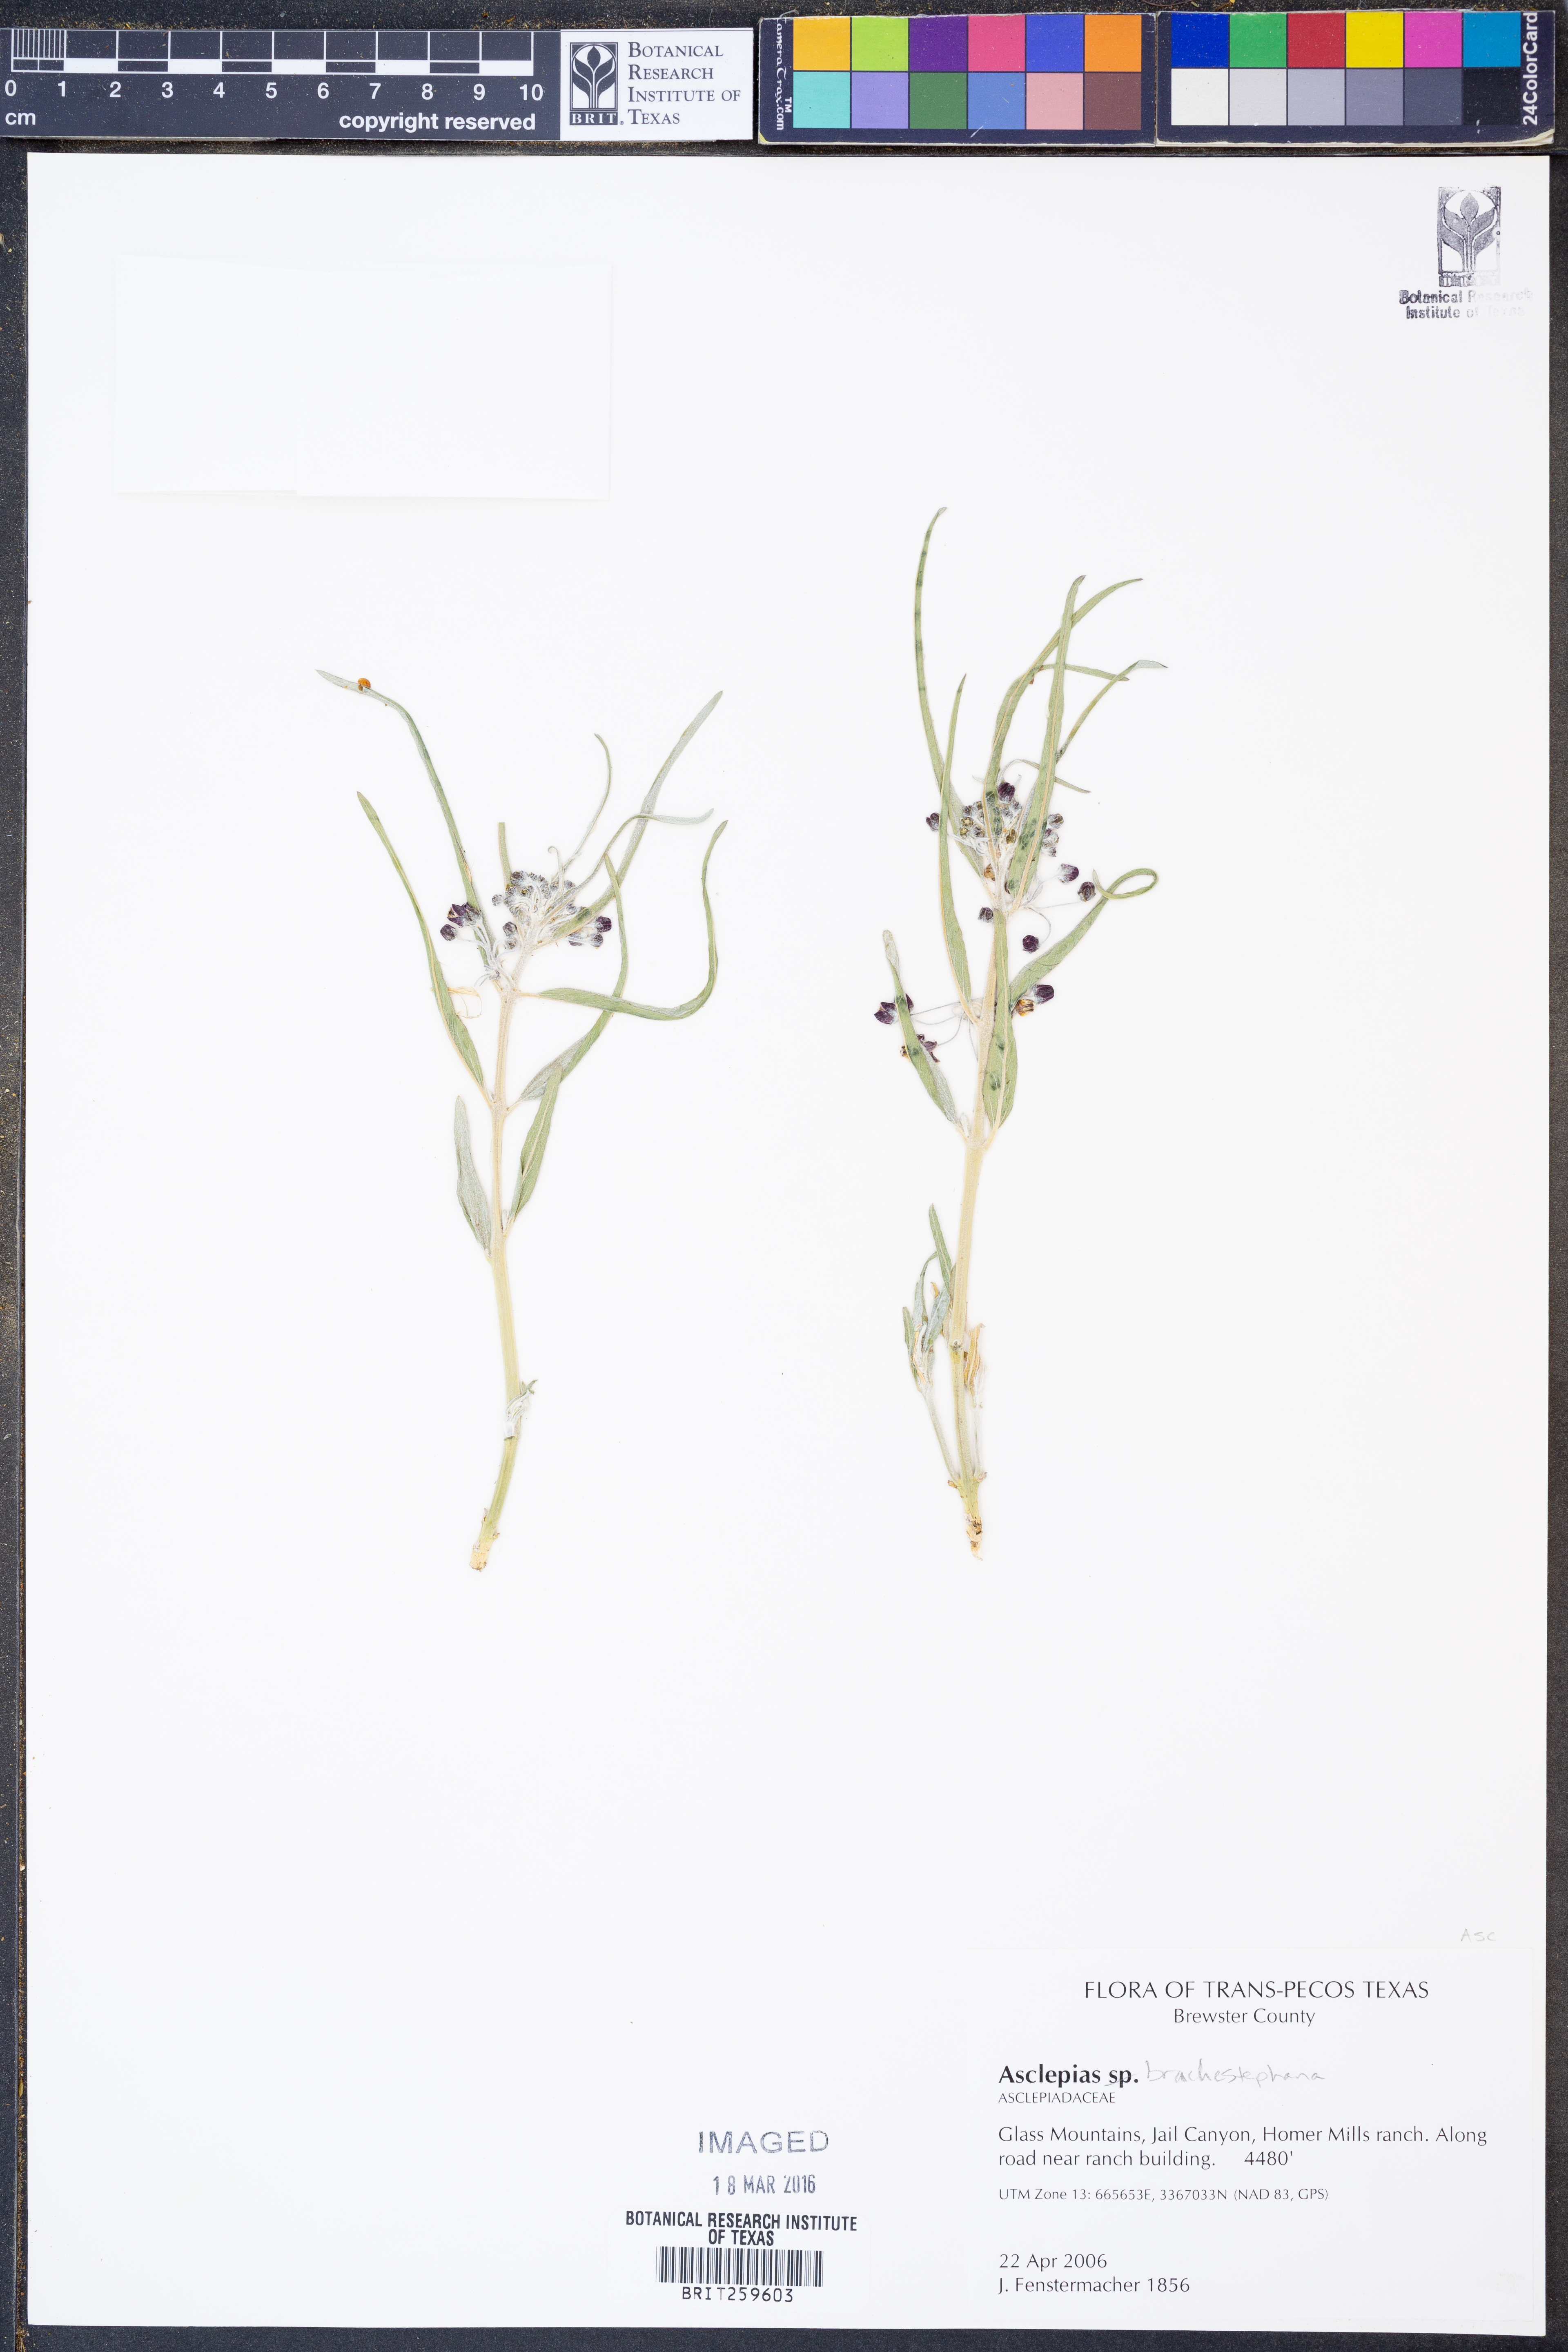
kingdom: Plantae
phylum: Tracheophyta
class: Magnoliopsida
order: Gentianales
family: Apocynaceae
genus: Asclepias
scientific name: Asclepias brachystephana
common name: Shortcrown milkweed
